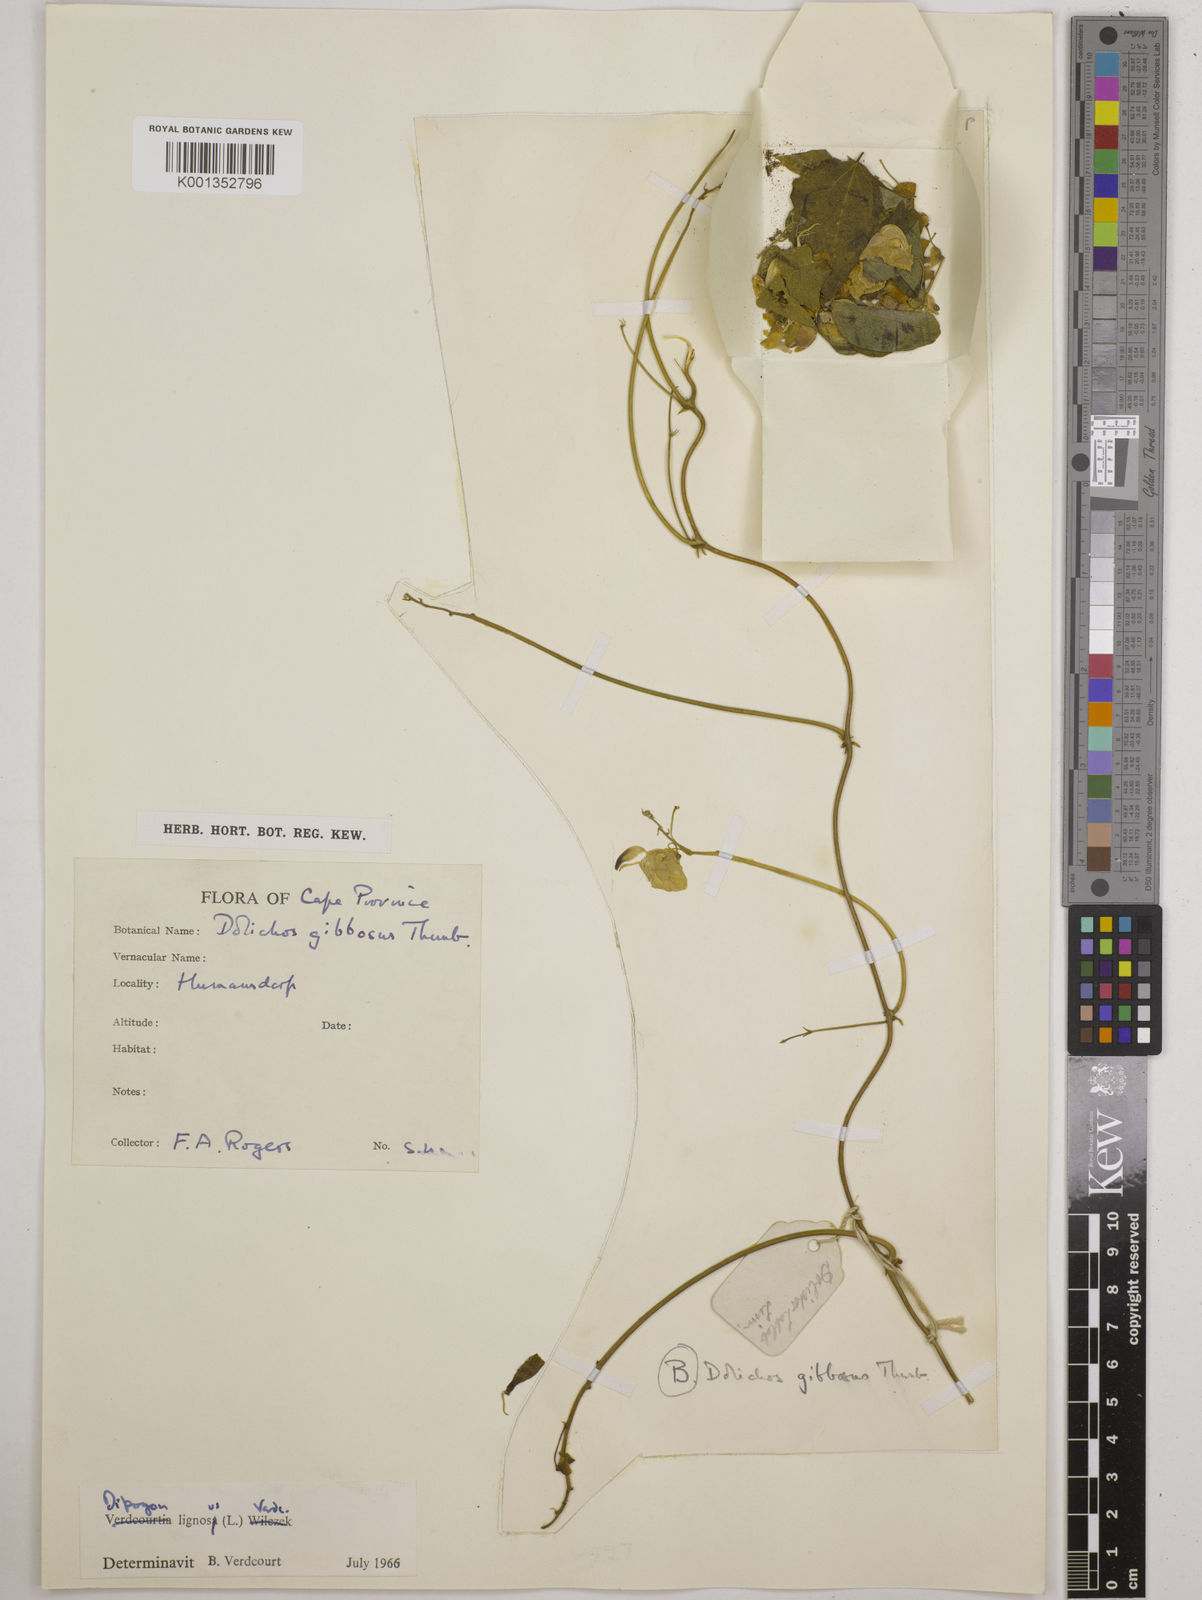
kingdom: Plantae
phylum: Tracheophyta
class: Magnoliopsida
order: Fabales
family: Fabaceae
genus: Dipogon
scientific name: Dipogon lignosus
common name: Okie bean
